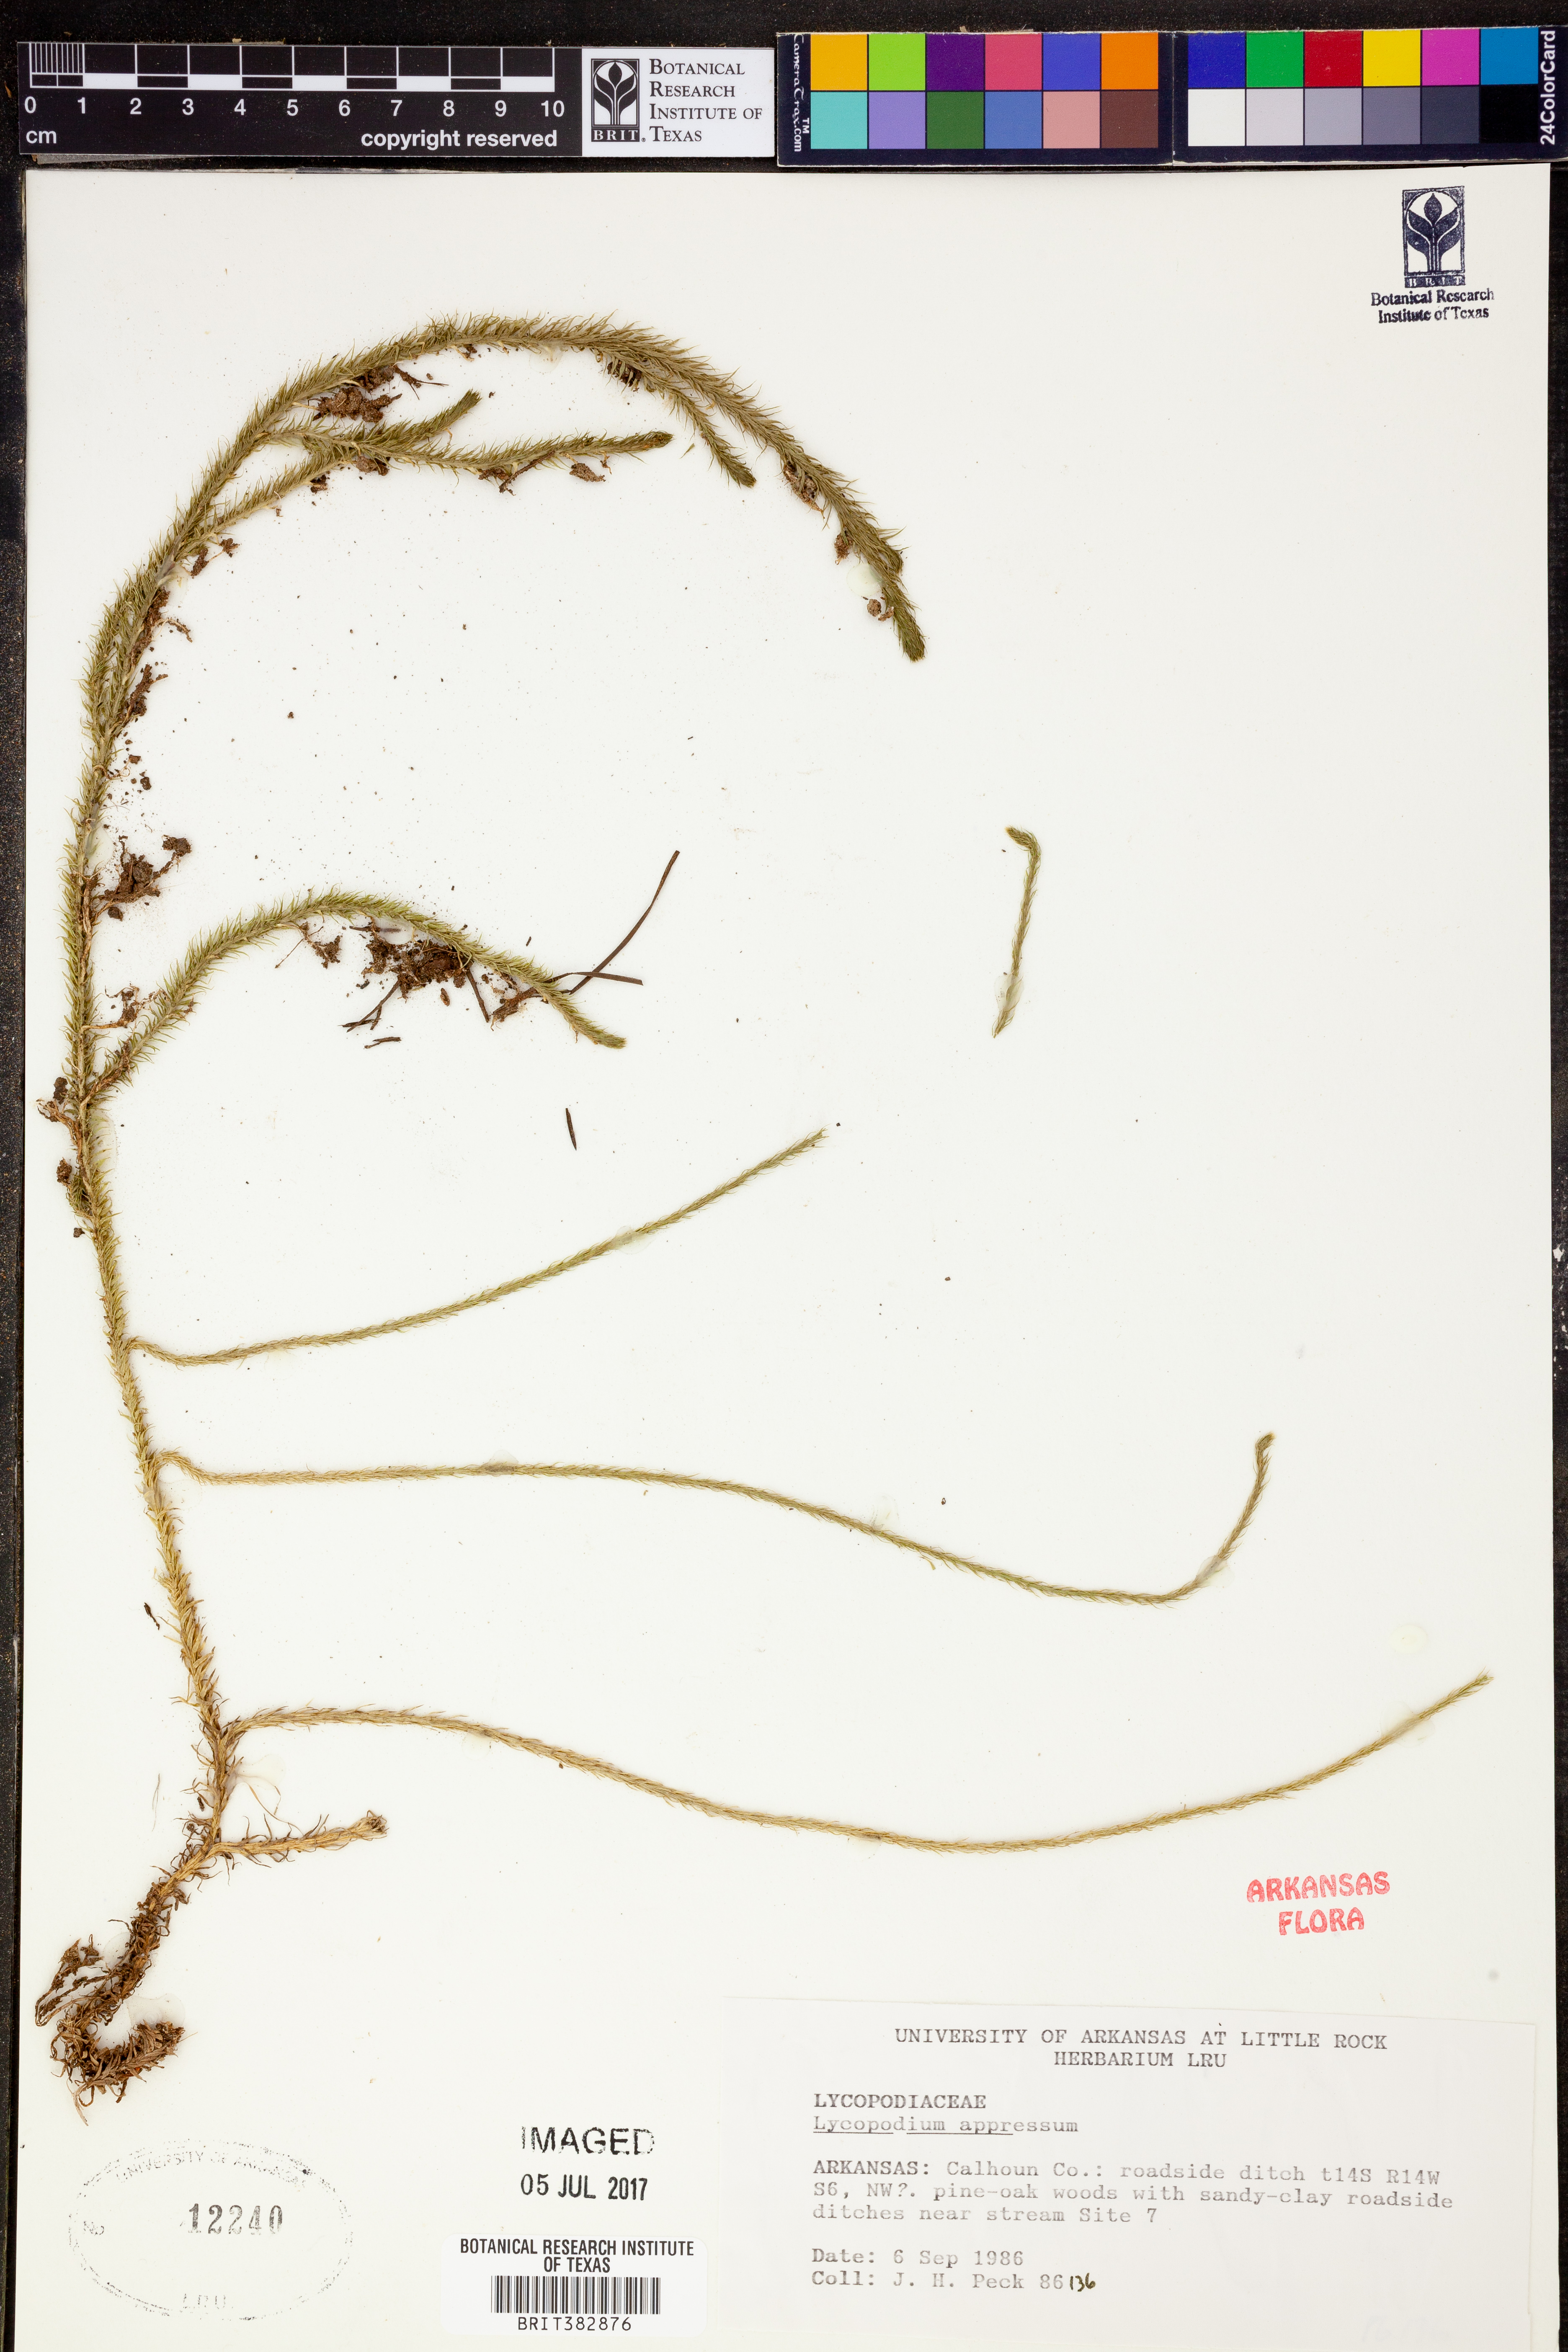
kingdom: Plantae
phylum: Tracheophyta
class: Lycopodiopsida
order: Lycopodiales
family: Lycopodiaceae
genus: Lycopodiella
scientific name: Lycopodiella appressa
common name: Appressed bog clubmoss
